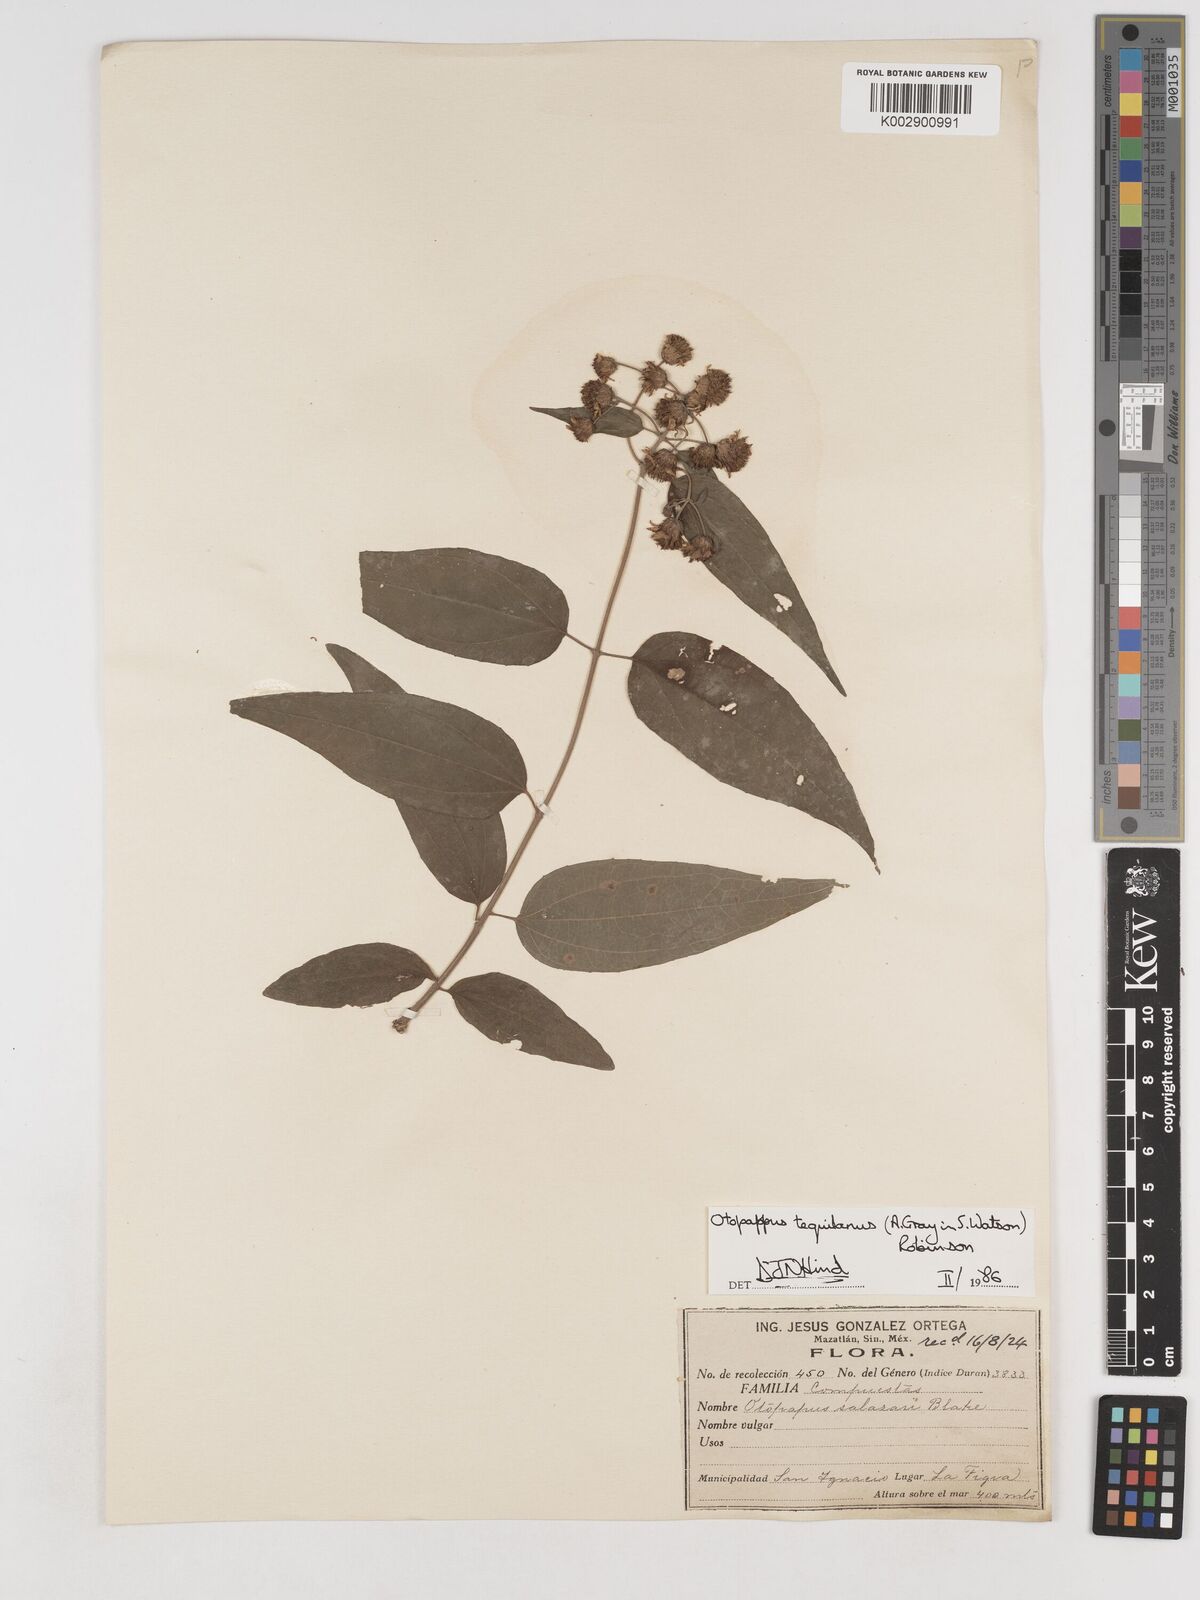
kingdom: Plantae
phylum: Tracheophyta
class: Magnoliopsida
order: Asterales
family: Asteraceae
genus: Otopappus
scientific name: Otopappus tequilanus
